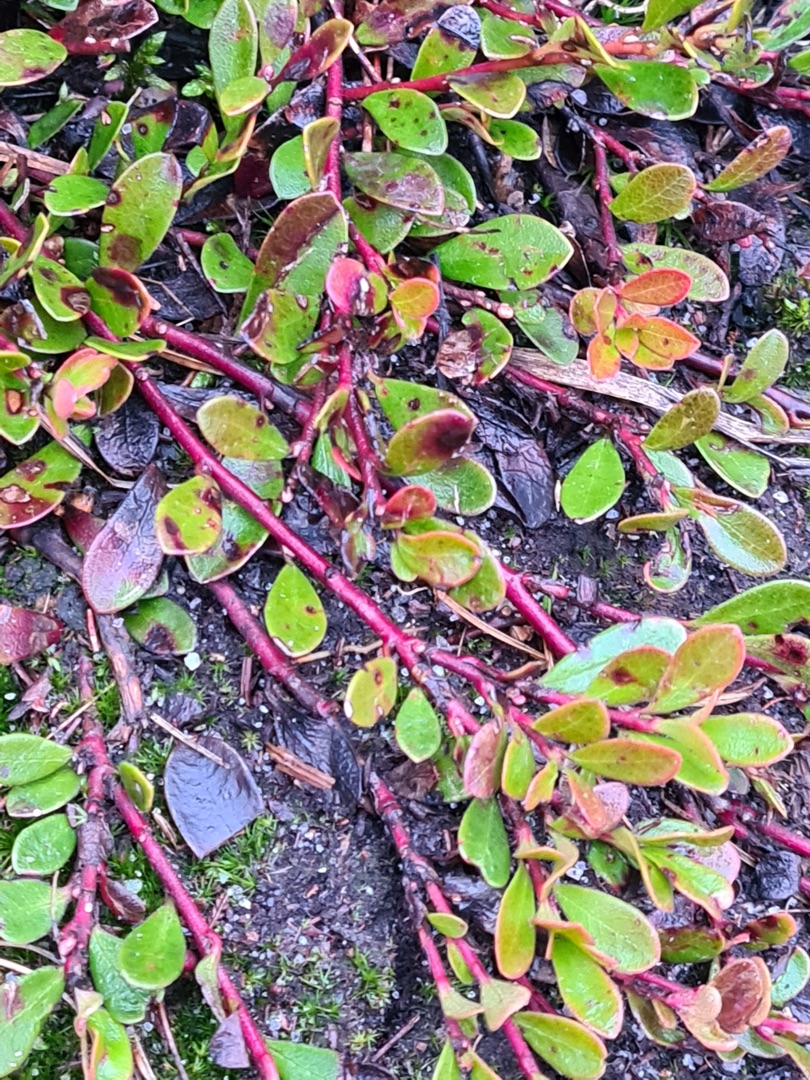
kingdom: Plantae
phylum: Tracheophyta
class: Magnoliopsida
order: Ericales
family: Ericaceae
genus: Arctostaphylos
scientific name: Arctostaphylos uva-ursi
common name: Hede-melbærris
